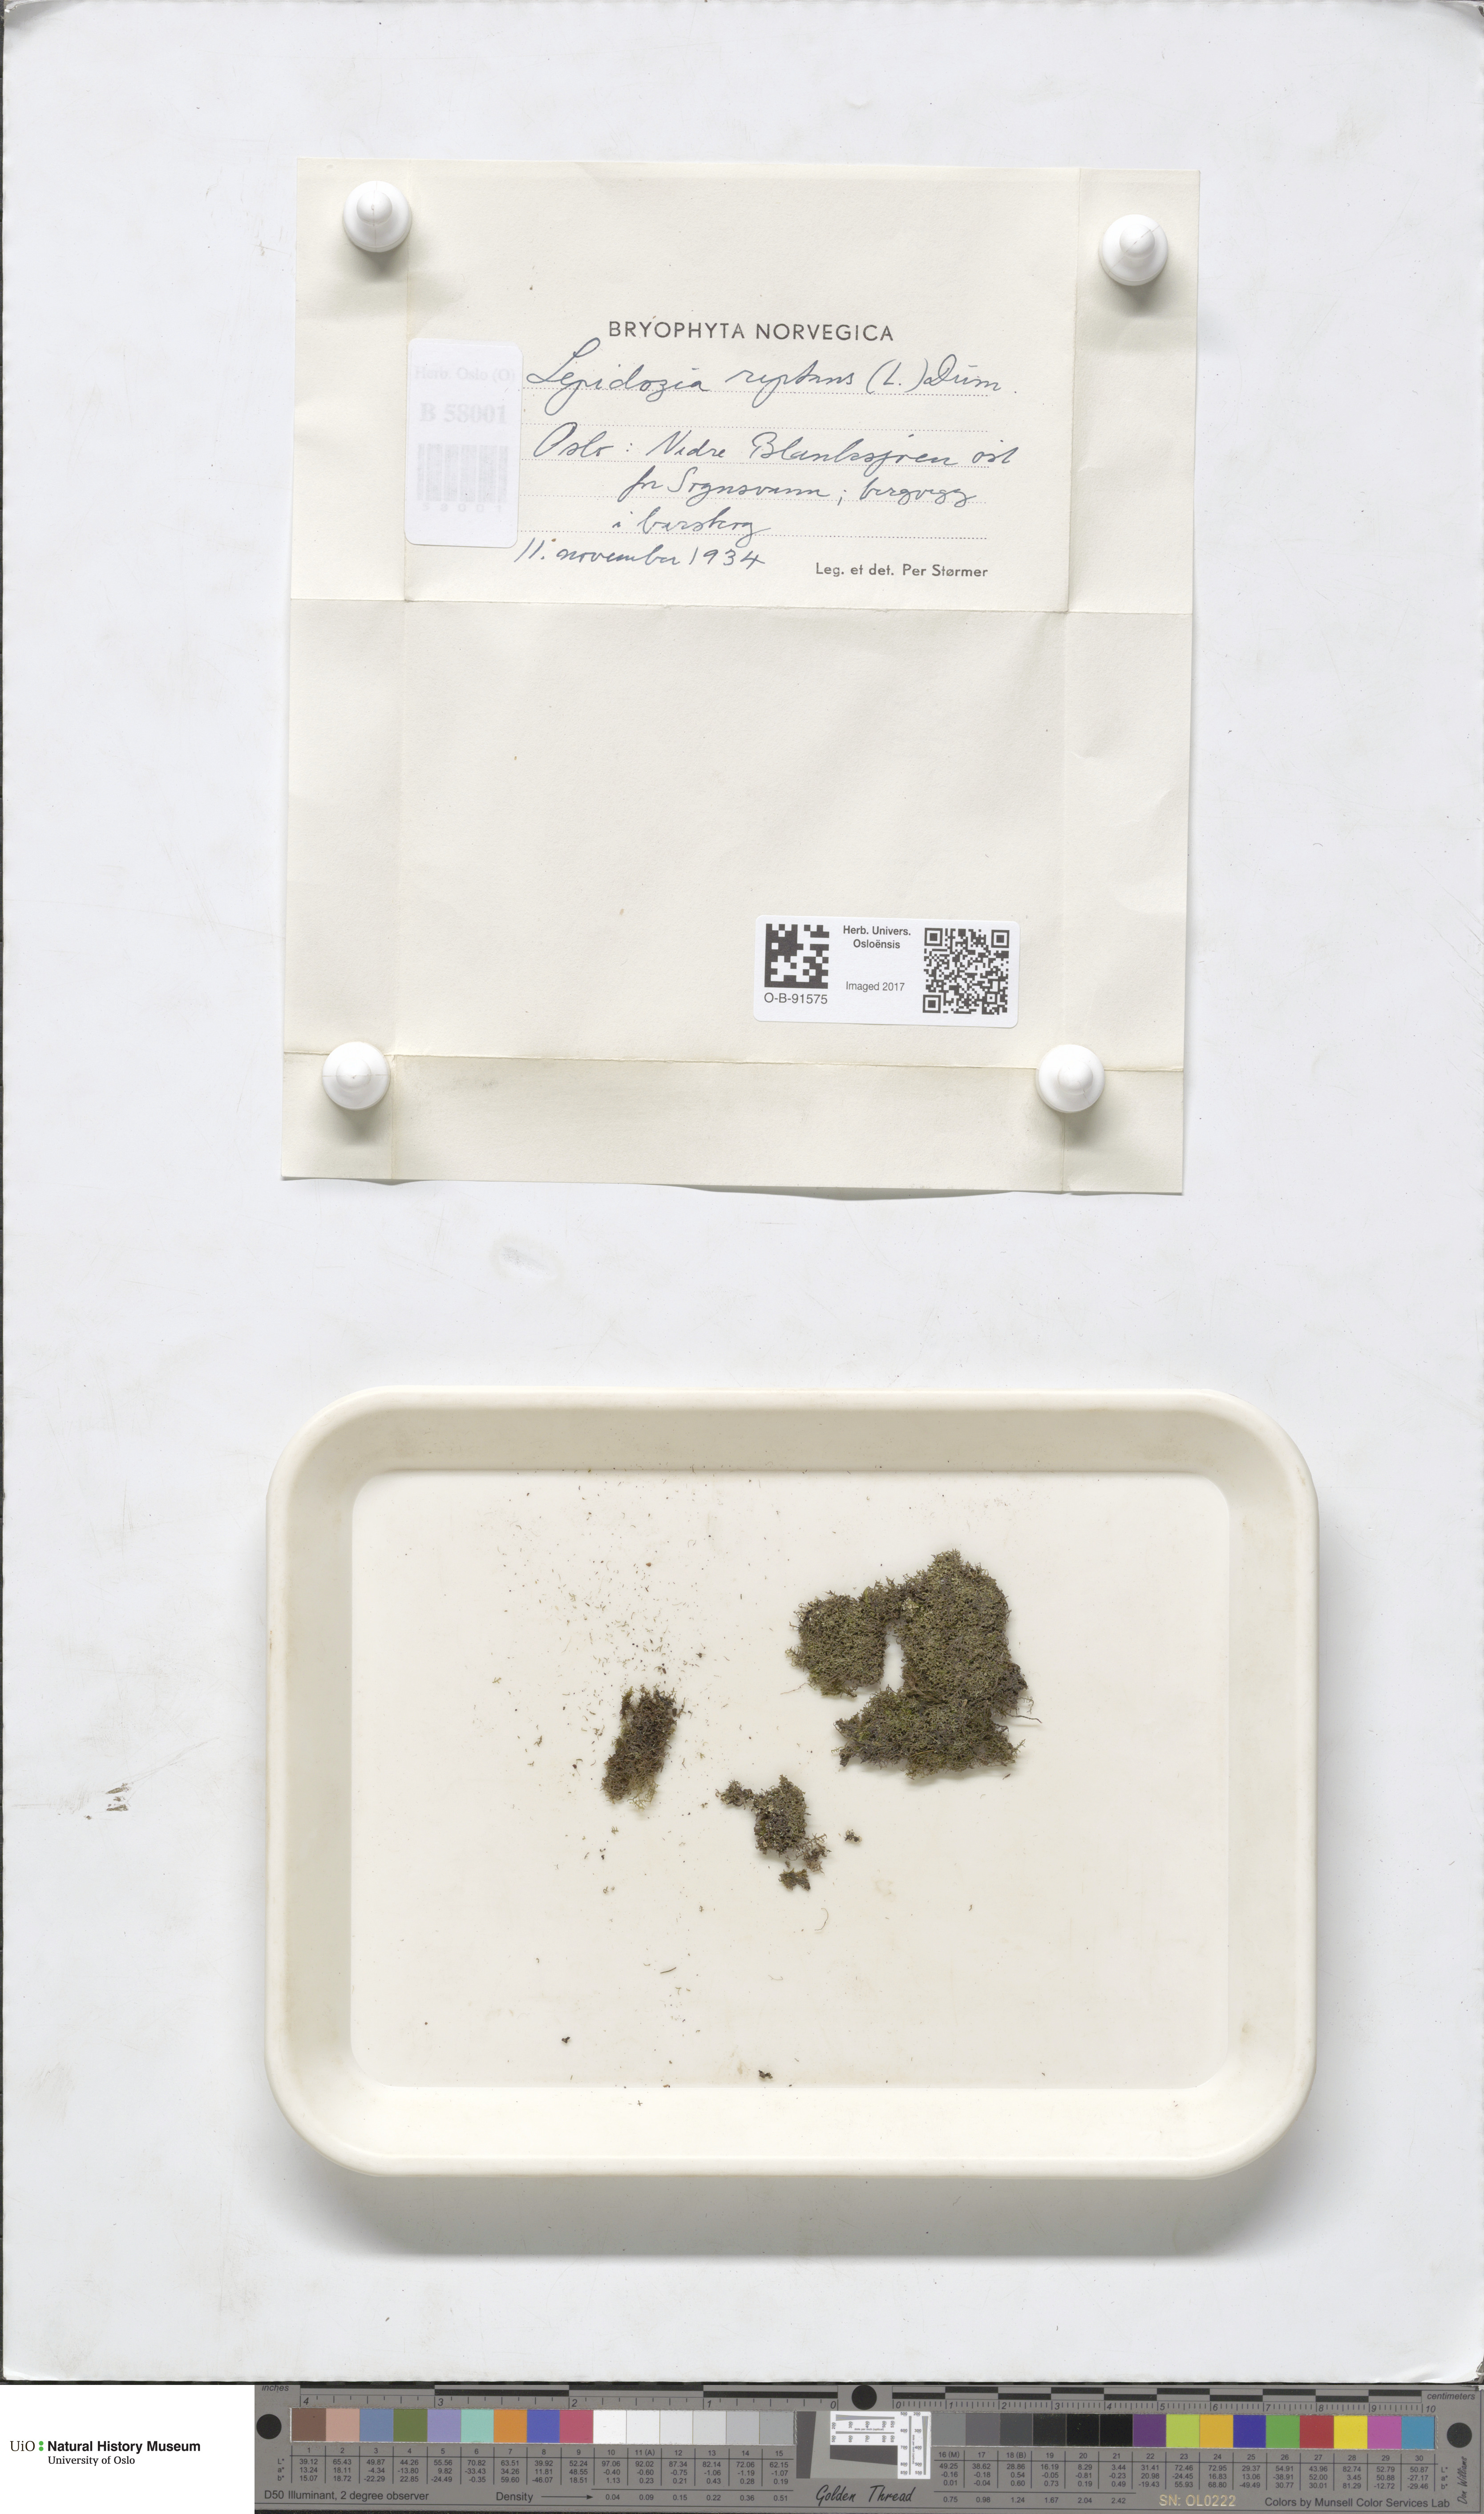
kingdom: Plantae
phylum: Marchantiophyta
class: Jungermanniopsida
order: Jungermanniales
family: Lepidoziaceae
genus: Lepidozia
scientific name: Lepidozia reptans
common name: Creeping fingerwort
